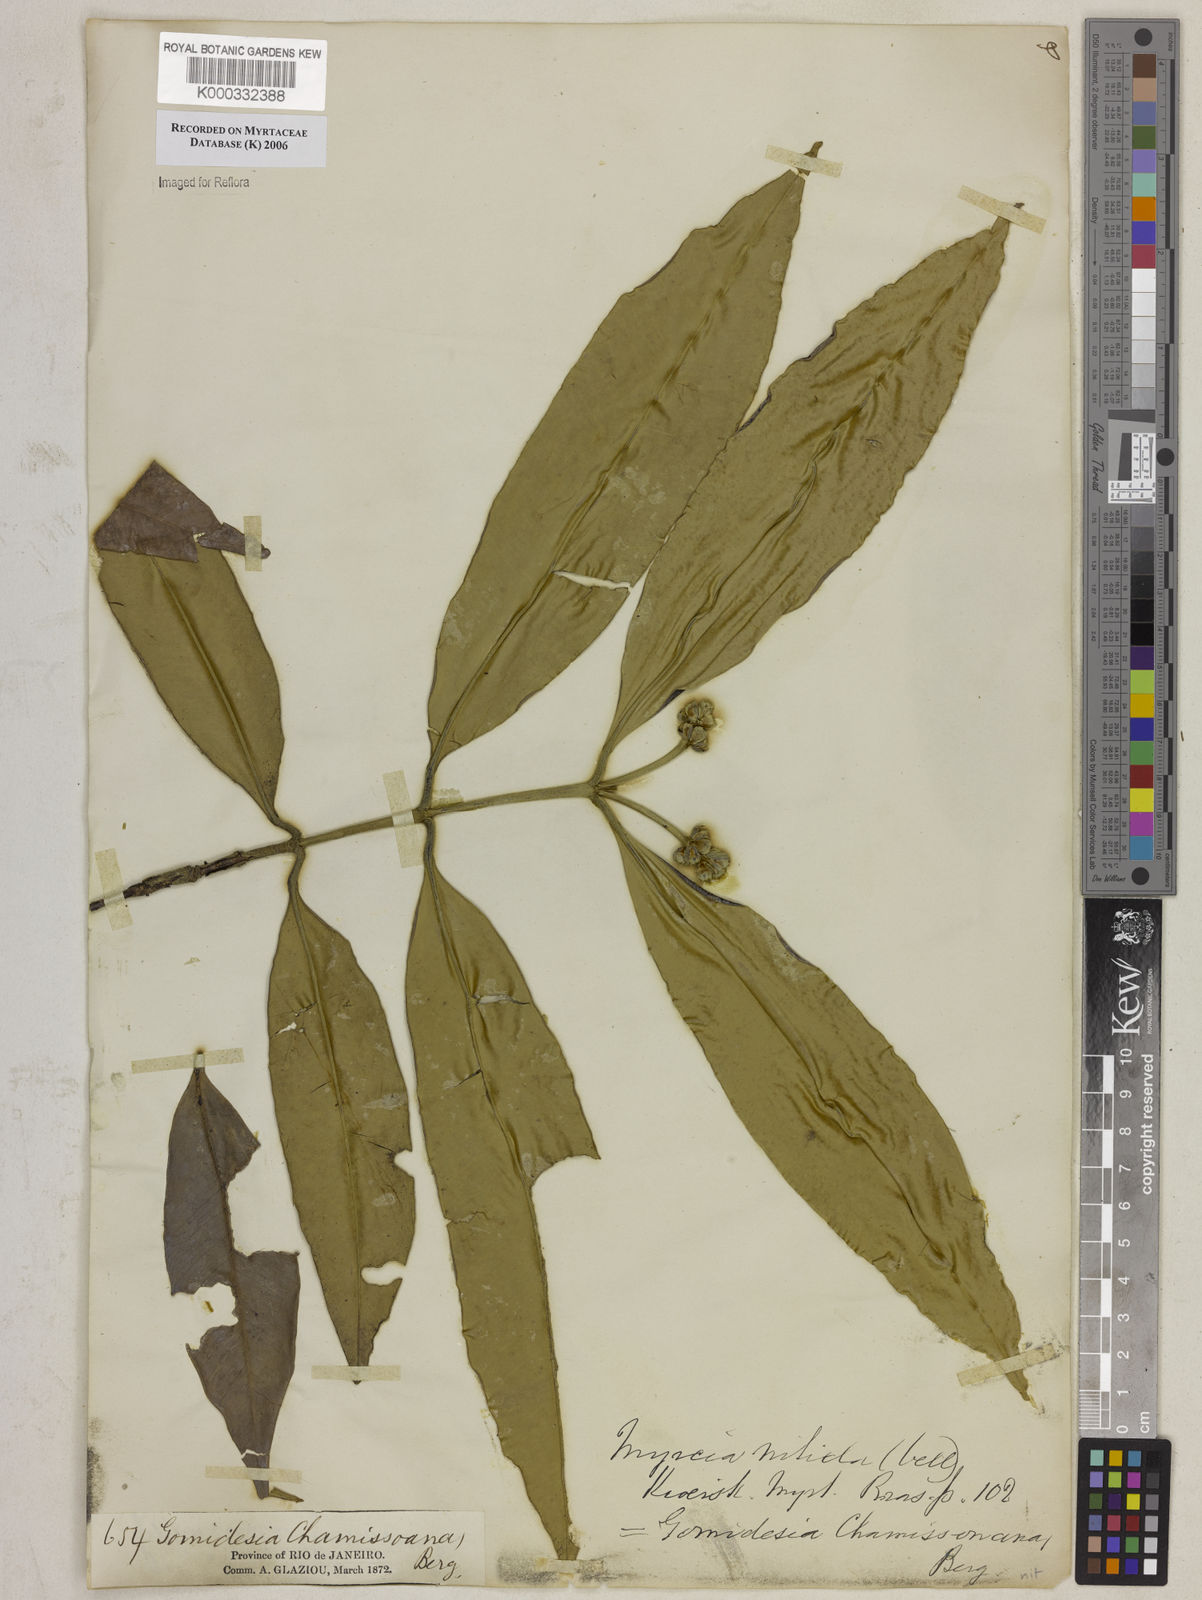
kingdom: Plantae
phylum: Tracheophyta
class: Magnoliopsida
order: Myrtales
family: Myrtaceae
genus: Myrcia
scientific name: Myrcia subsericea
